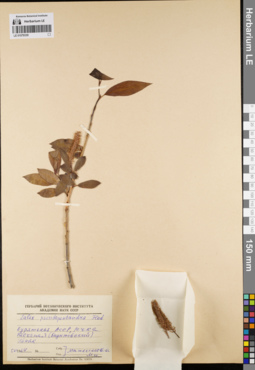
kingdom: Plantae
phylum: Tracheophyta
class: Magnoliopsida
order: Malpighiales
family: Salicaceae
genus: Salix
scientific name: Salix pseudopentandra
